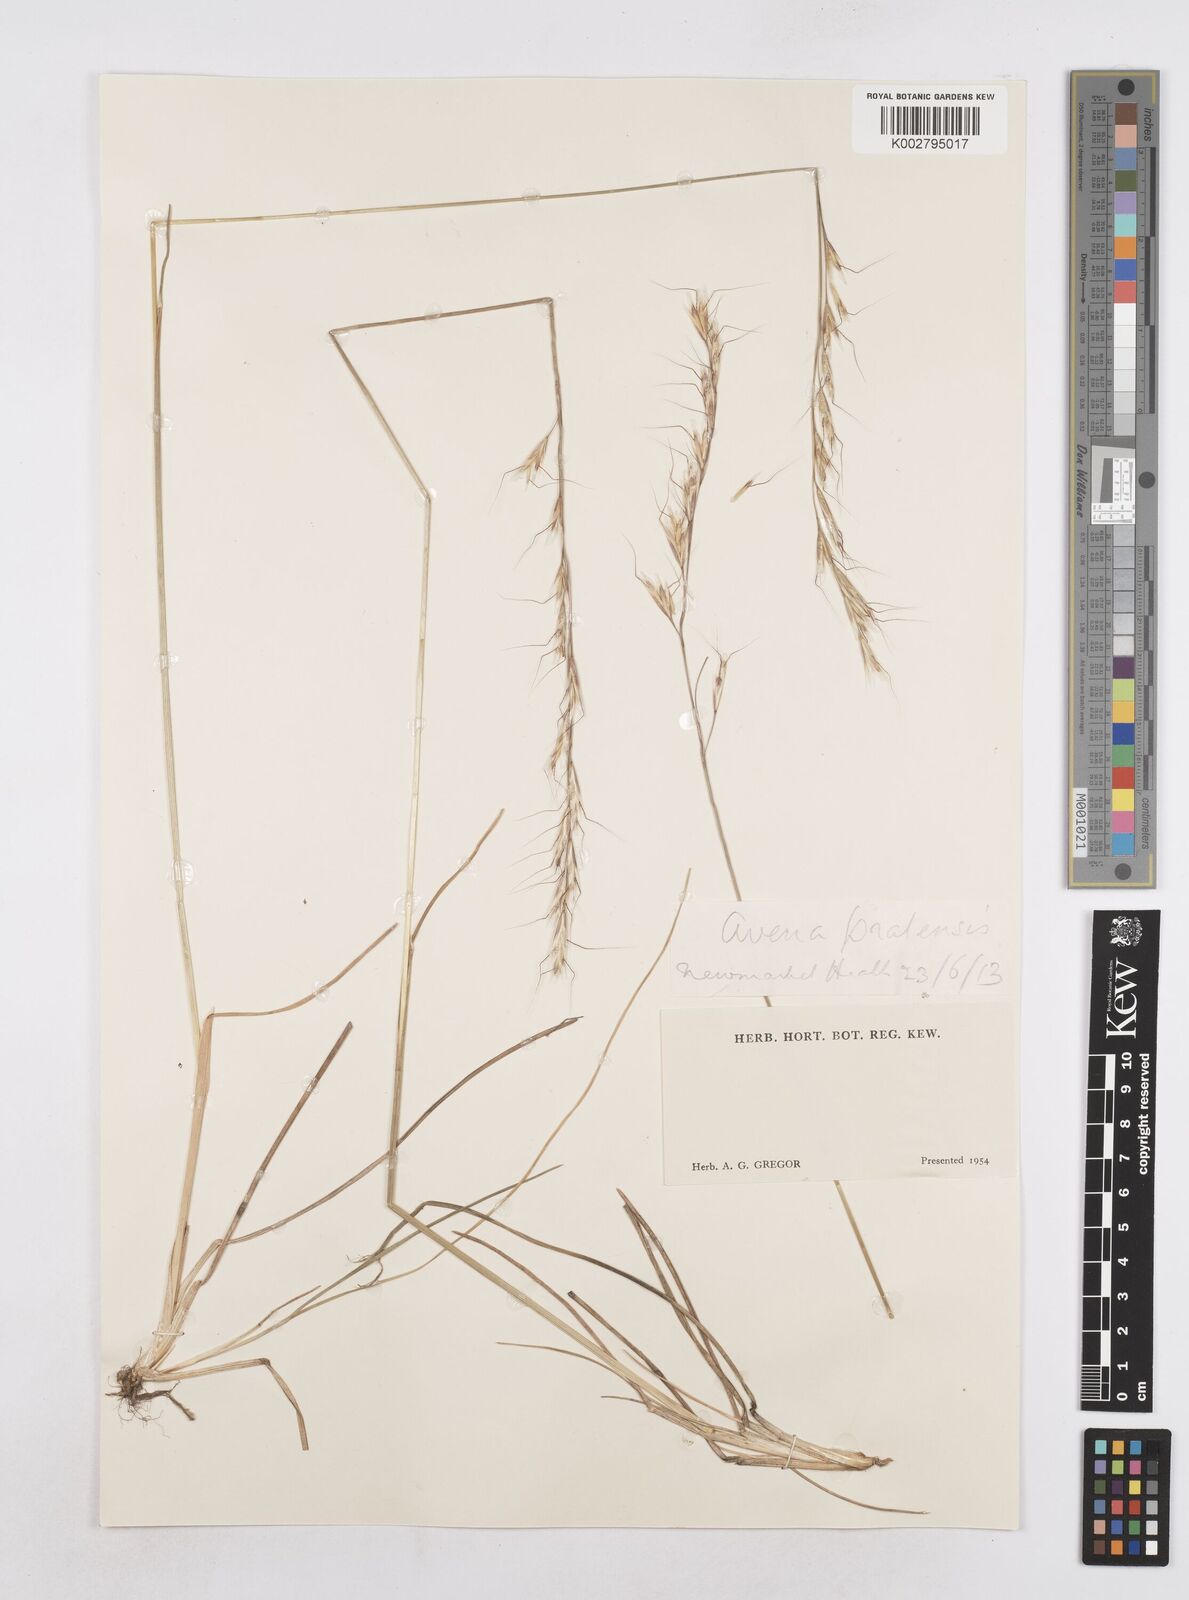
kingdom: Plantae
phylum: Tracheophyta
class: Liliopsida
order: Poales
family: Poaceae
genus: Helictochloa
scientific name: Helictochloa pratensis
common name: Meadow oat grass
